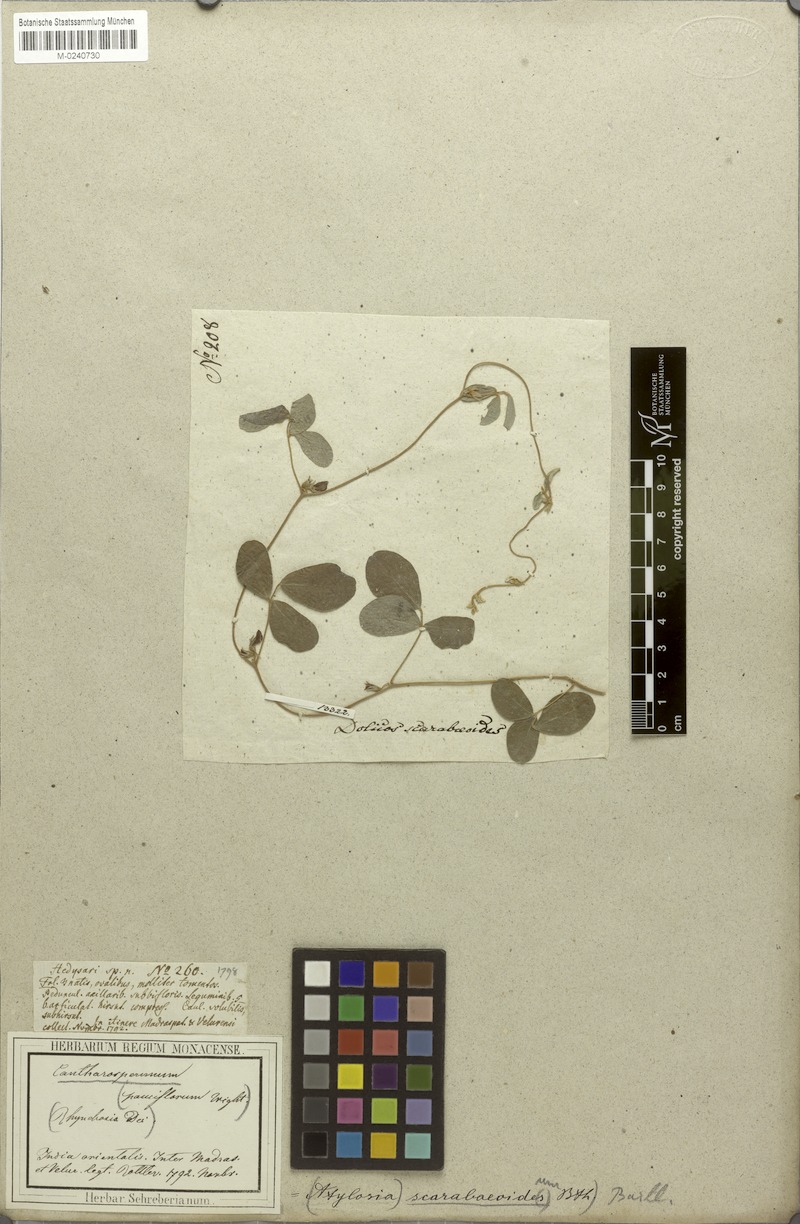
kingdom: Plantae
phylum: Tracheophyta
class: Magnoliopsida
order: Fabales
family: Fabaceae
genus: Cajanus
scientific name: Cajanus scarabaeoides
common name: Showy pigeonpea
